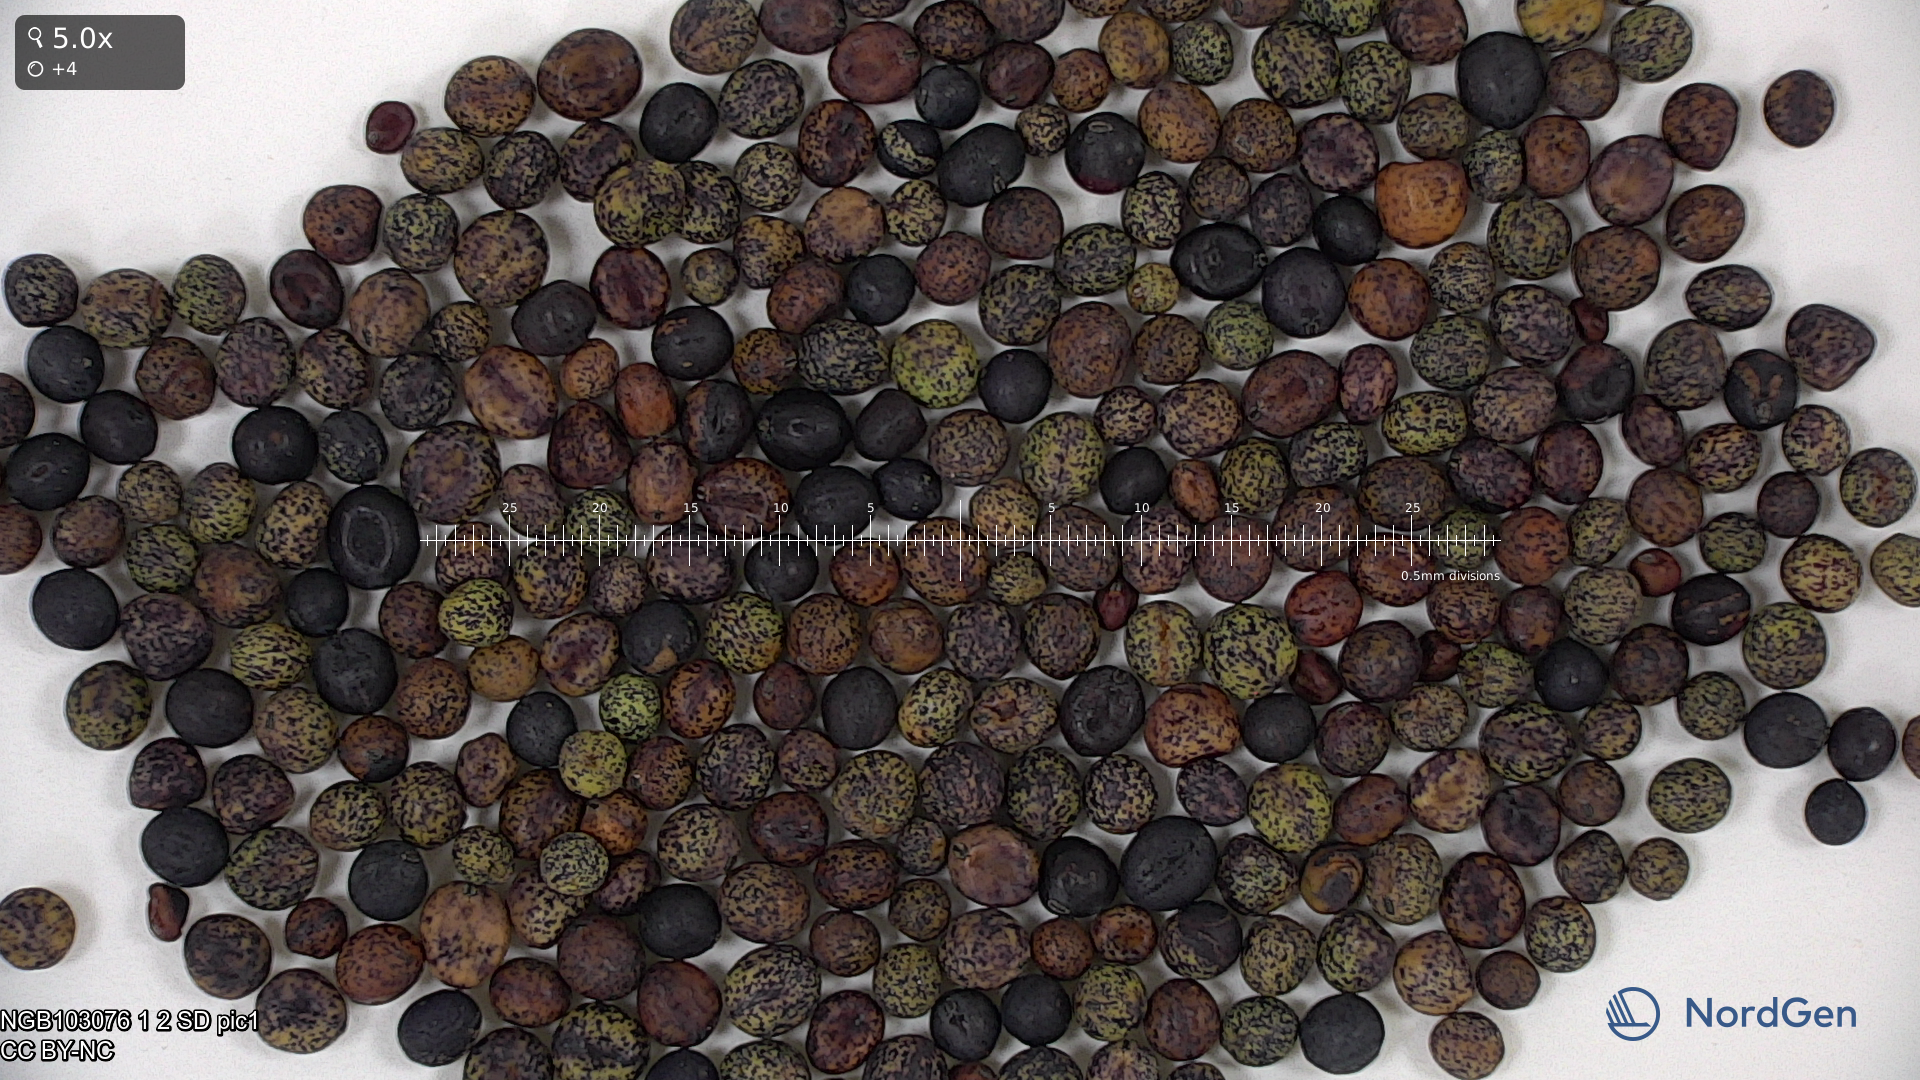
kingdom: Plantae
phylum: Tracheophyta
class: Magnoliopsida
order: Fabales
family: Fabaceae
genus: Lathyrus
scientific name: Lathyrus oleraceus
